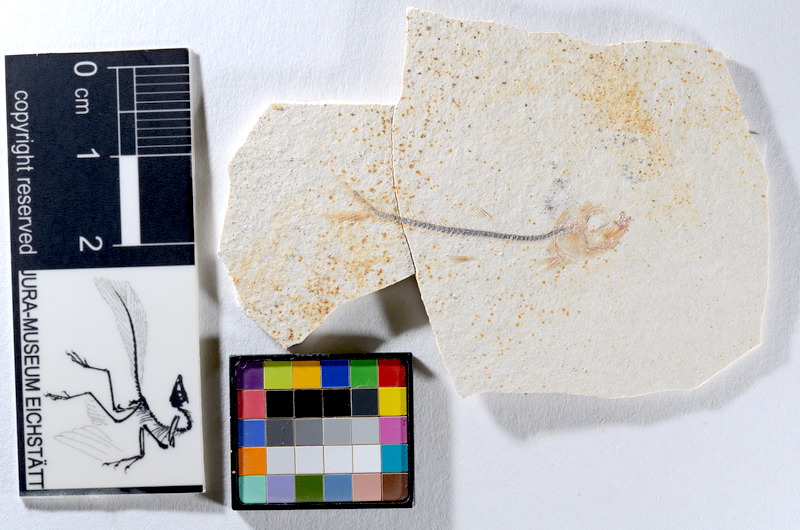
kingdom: Animalia
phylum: Chordata
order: Salmoniformes
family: Orthogonikleithridae
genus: Orthogonikleithrus
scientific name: Orthogonikleithrus hoelli
